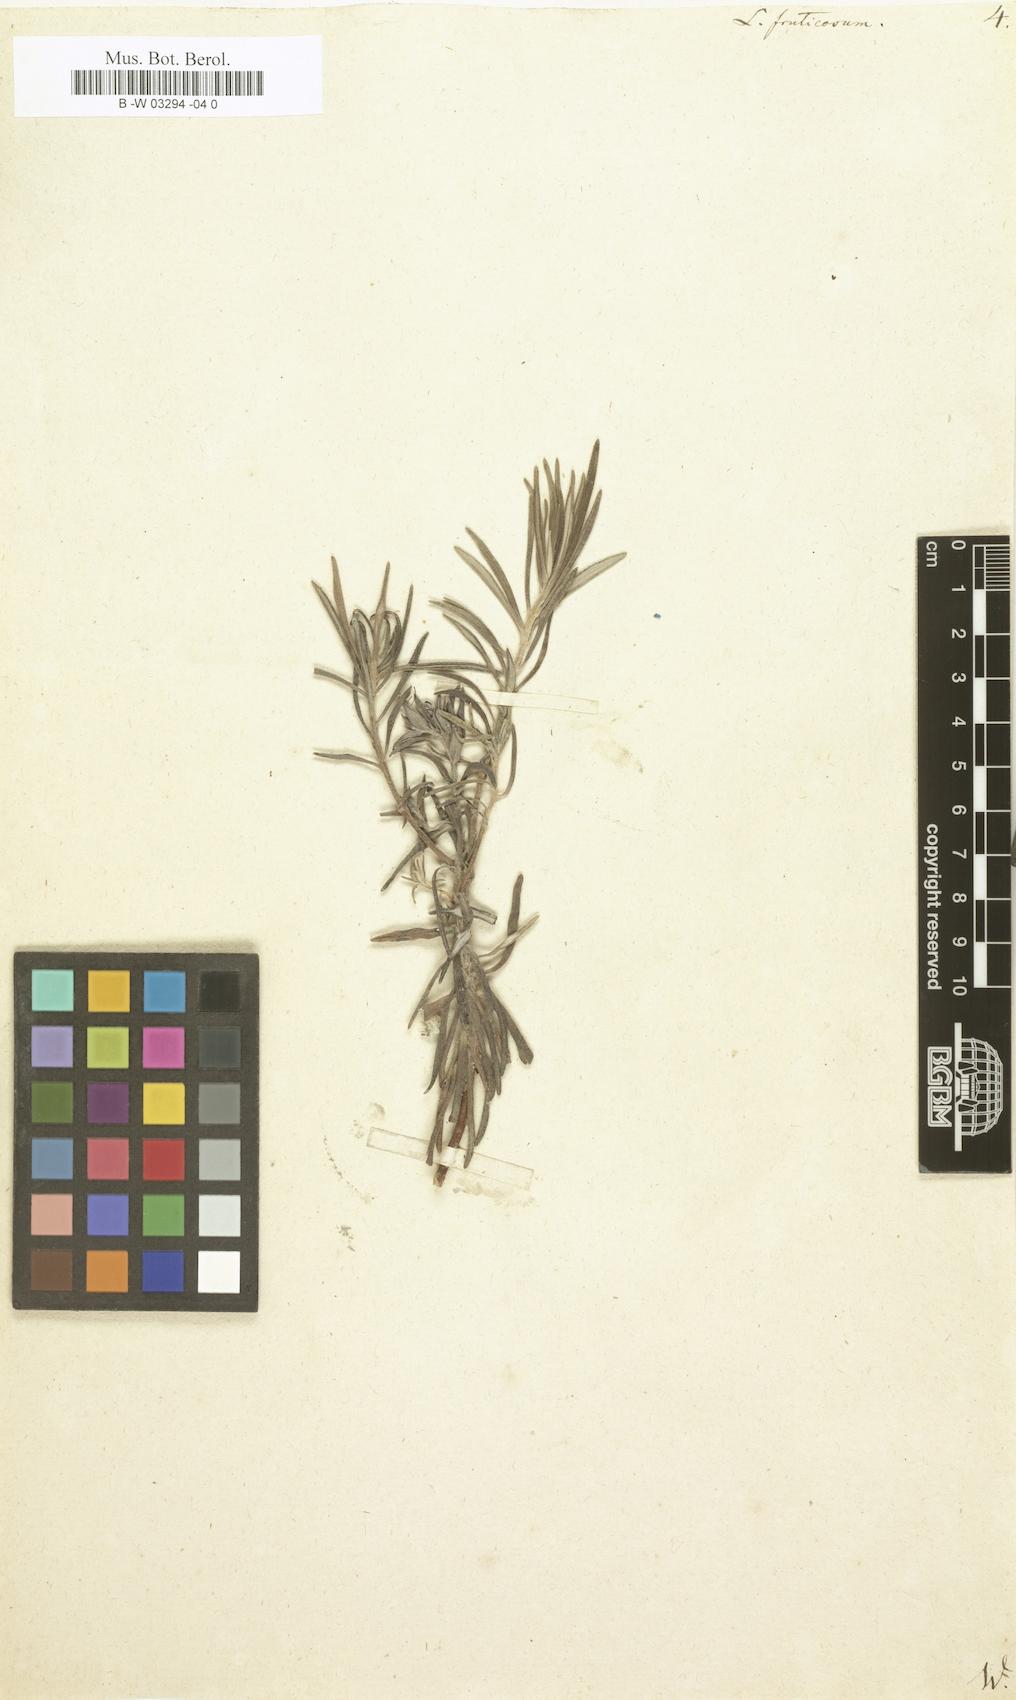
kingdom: Plantae
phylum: Tracheophyta
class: Magnoliopsida
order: Boraginales
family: Boraginaceae
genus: Lithodora
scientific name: Lithodora fruticosa
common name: Shrubby gromwell
